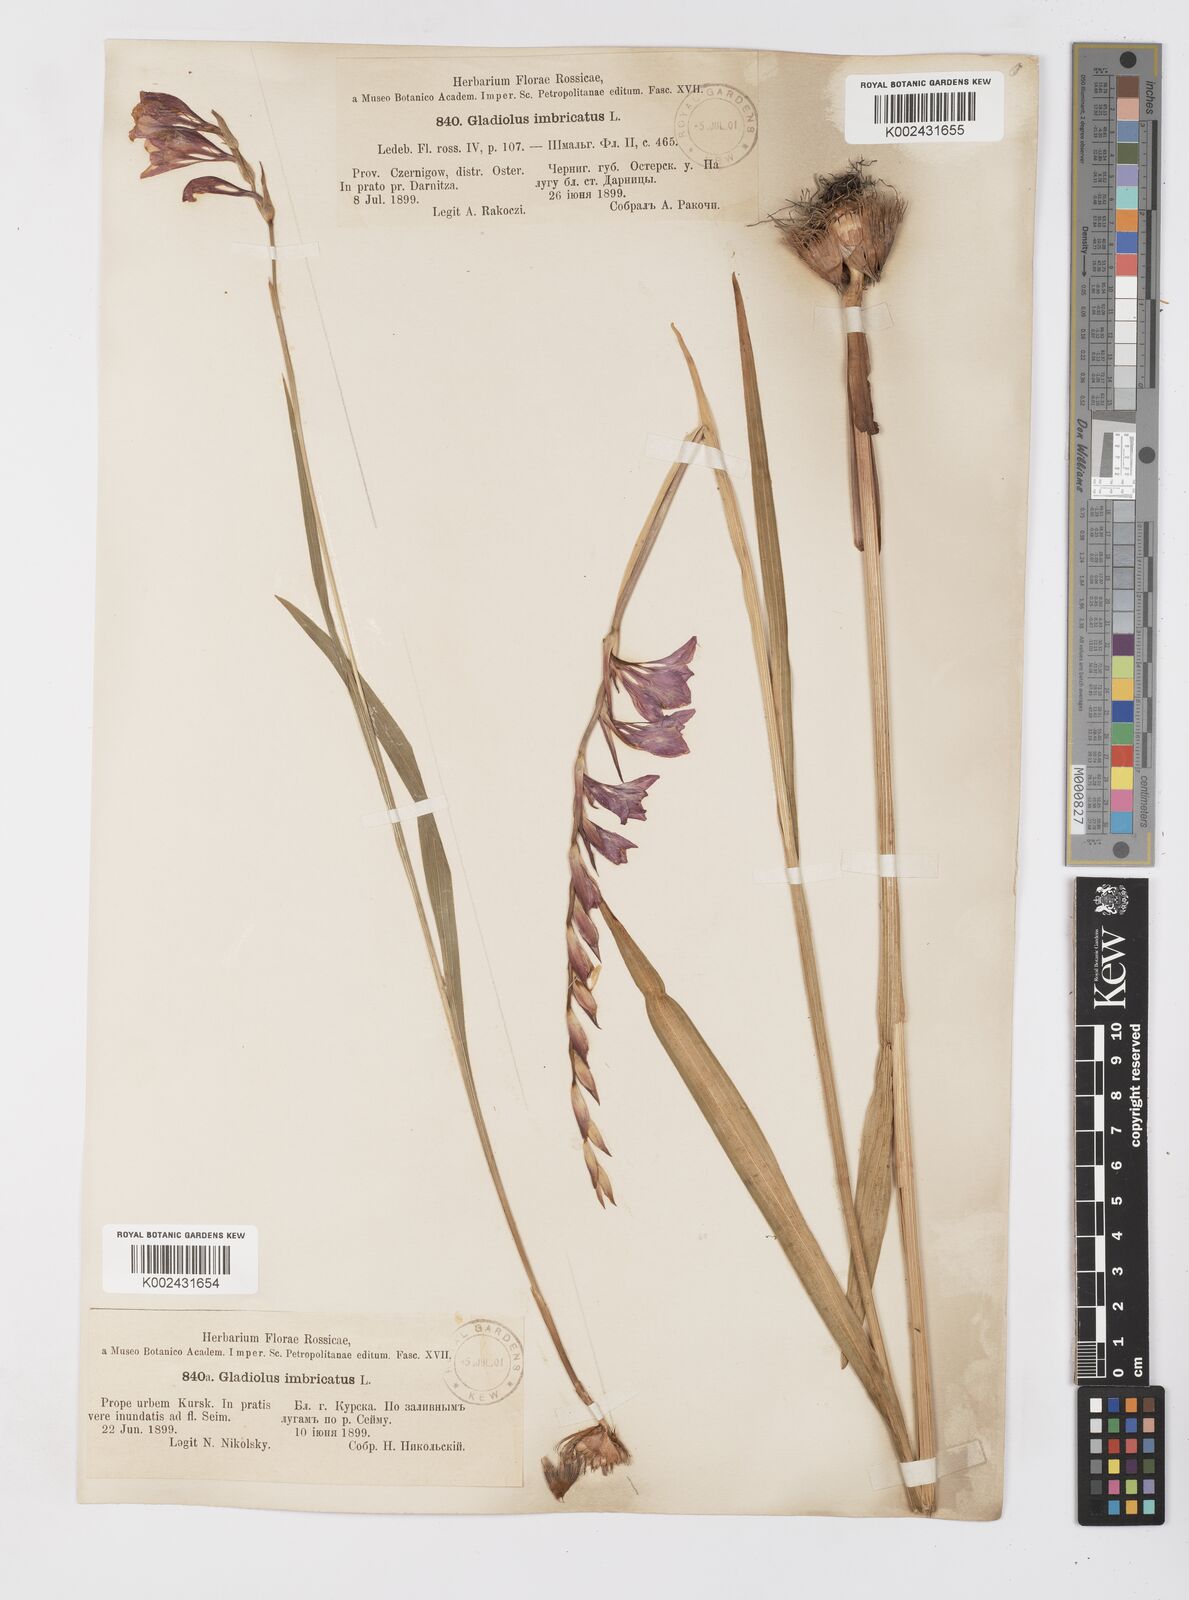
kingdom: Plantae
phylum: Tracheophyta
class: Liliopsida
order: Asparagales
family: Iridaceae
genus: Gladiolus
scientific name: Gladiolus imbricatus
